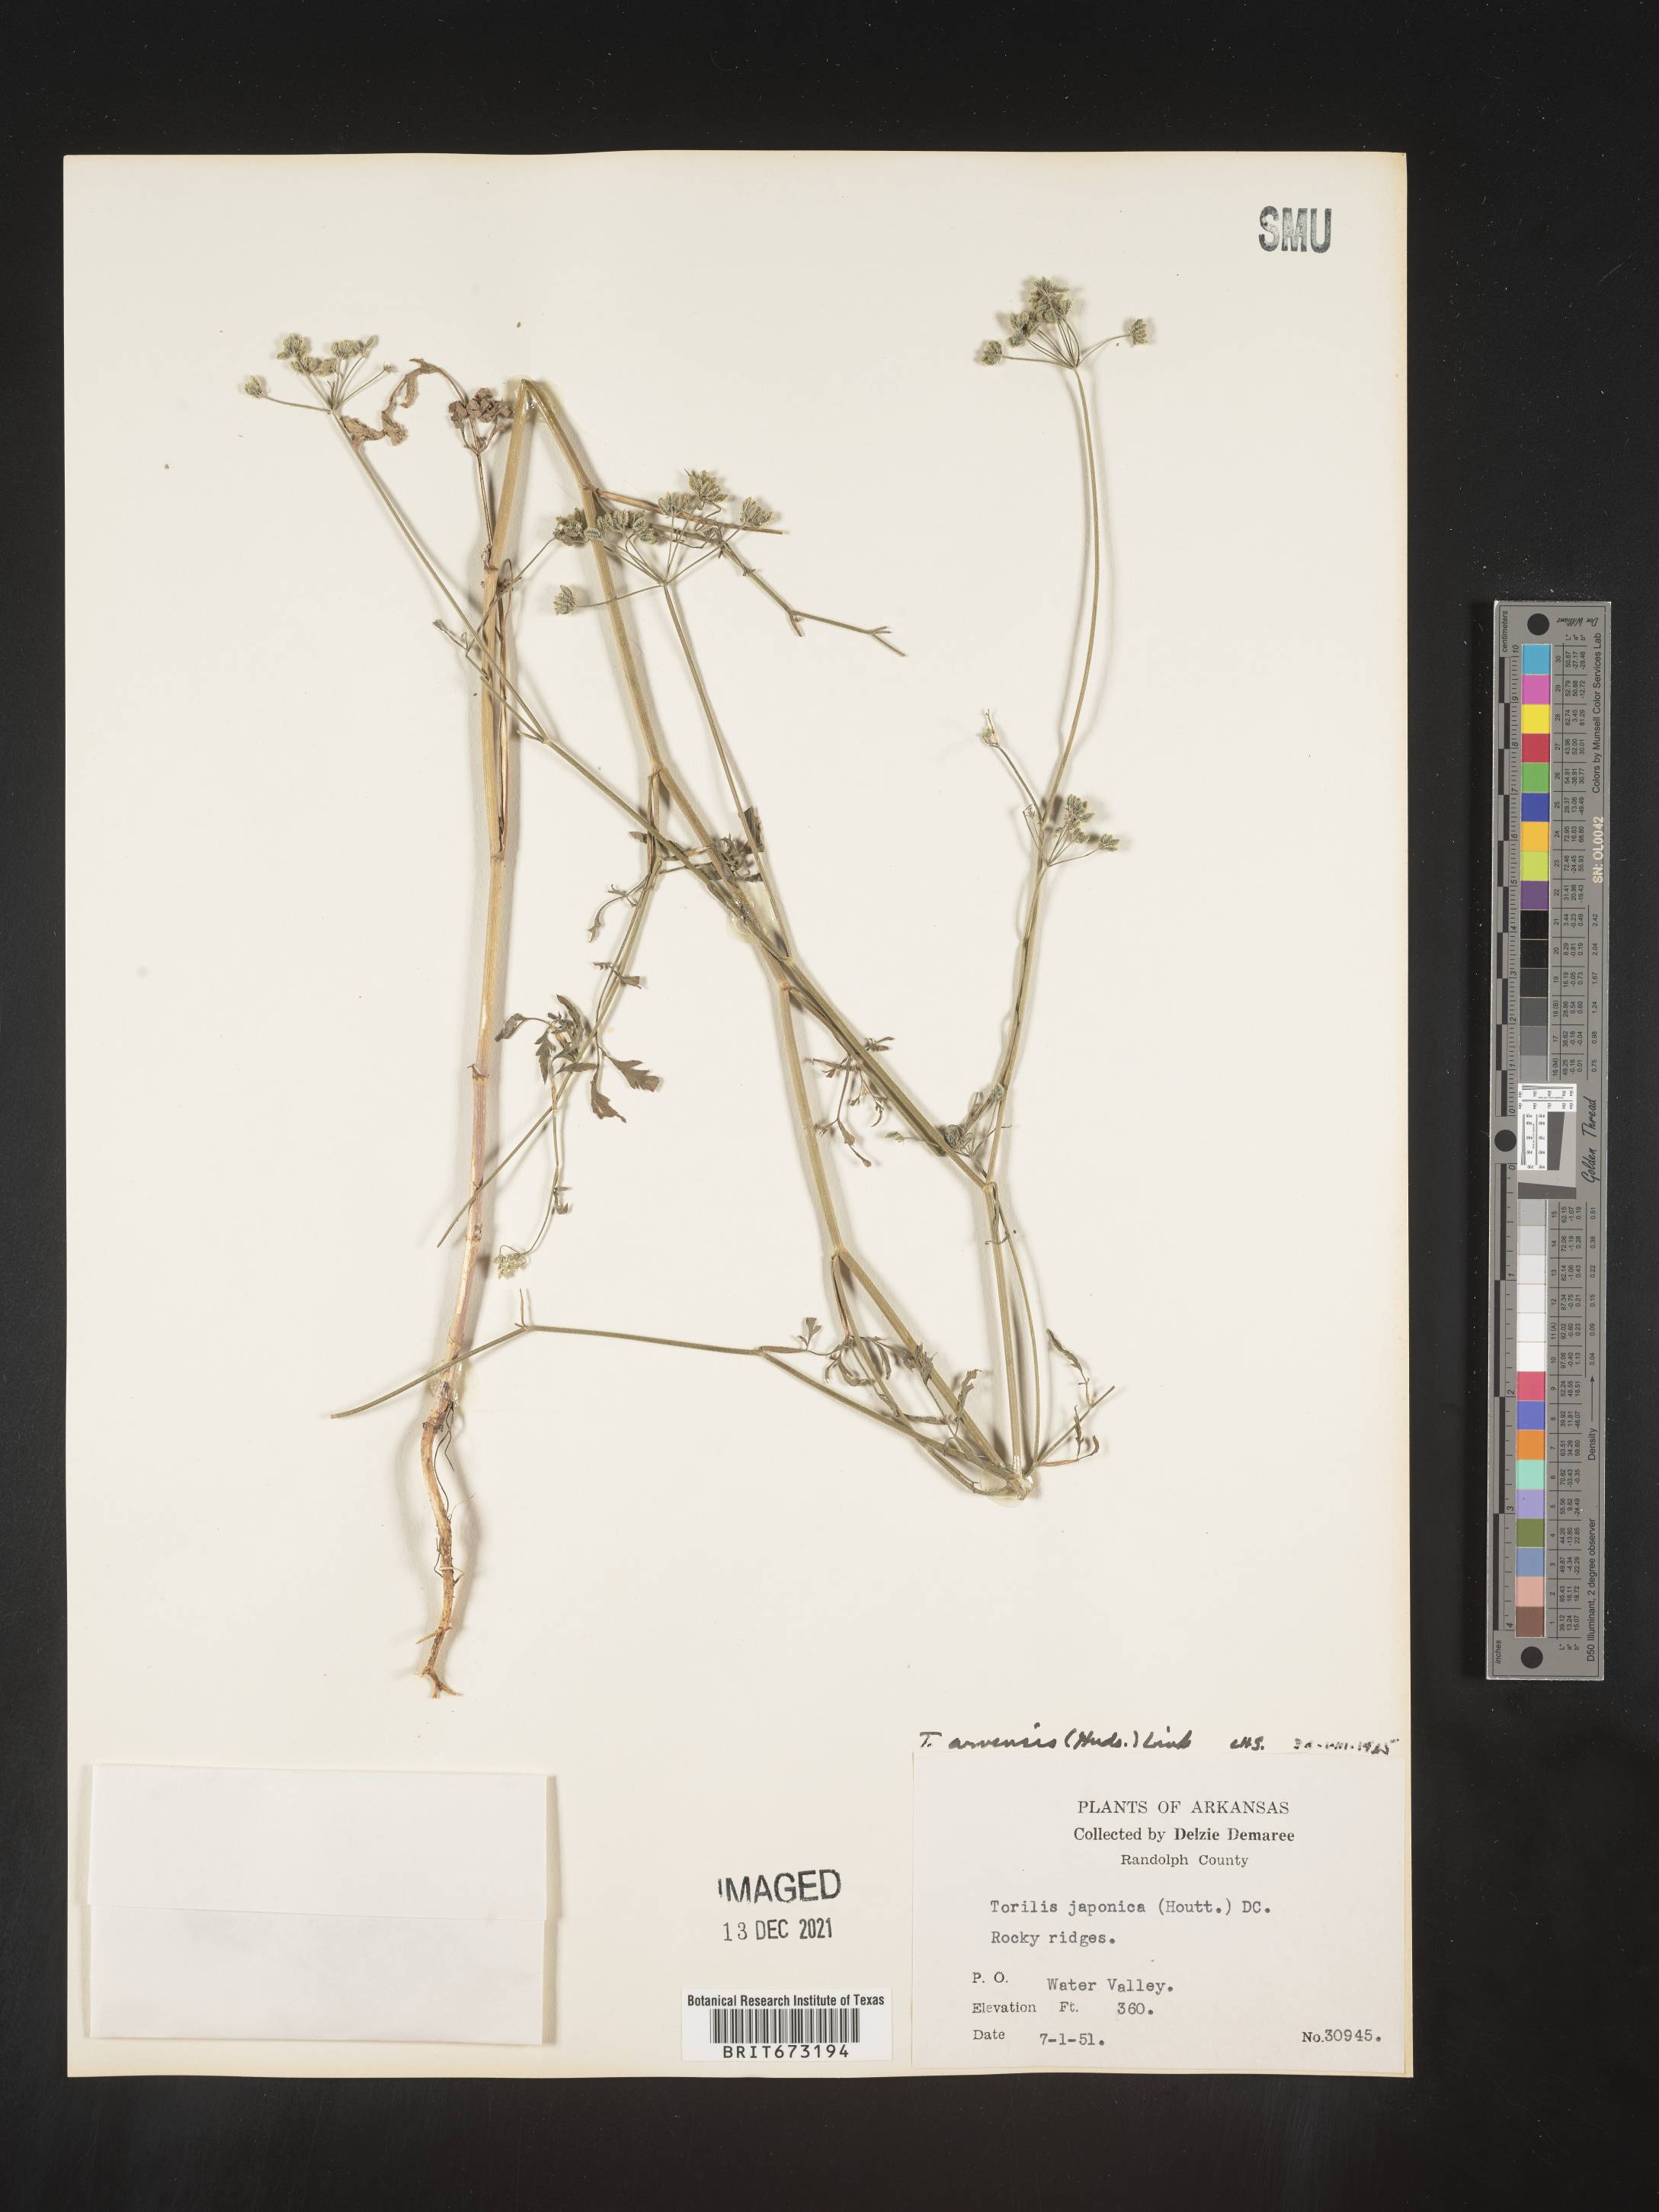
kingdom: Plantae
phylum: Tracheophyta
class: Magnoliopsida
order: Apiales
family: Apiaceae
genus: Torilis
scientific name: Torilis arvensis
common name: Spreading hedge-parsley
